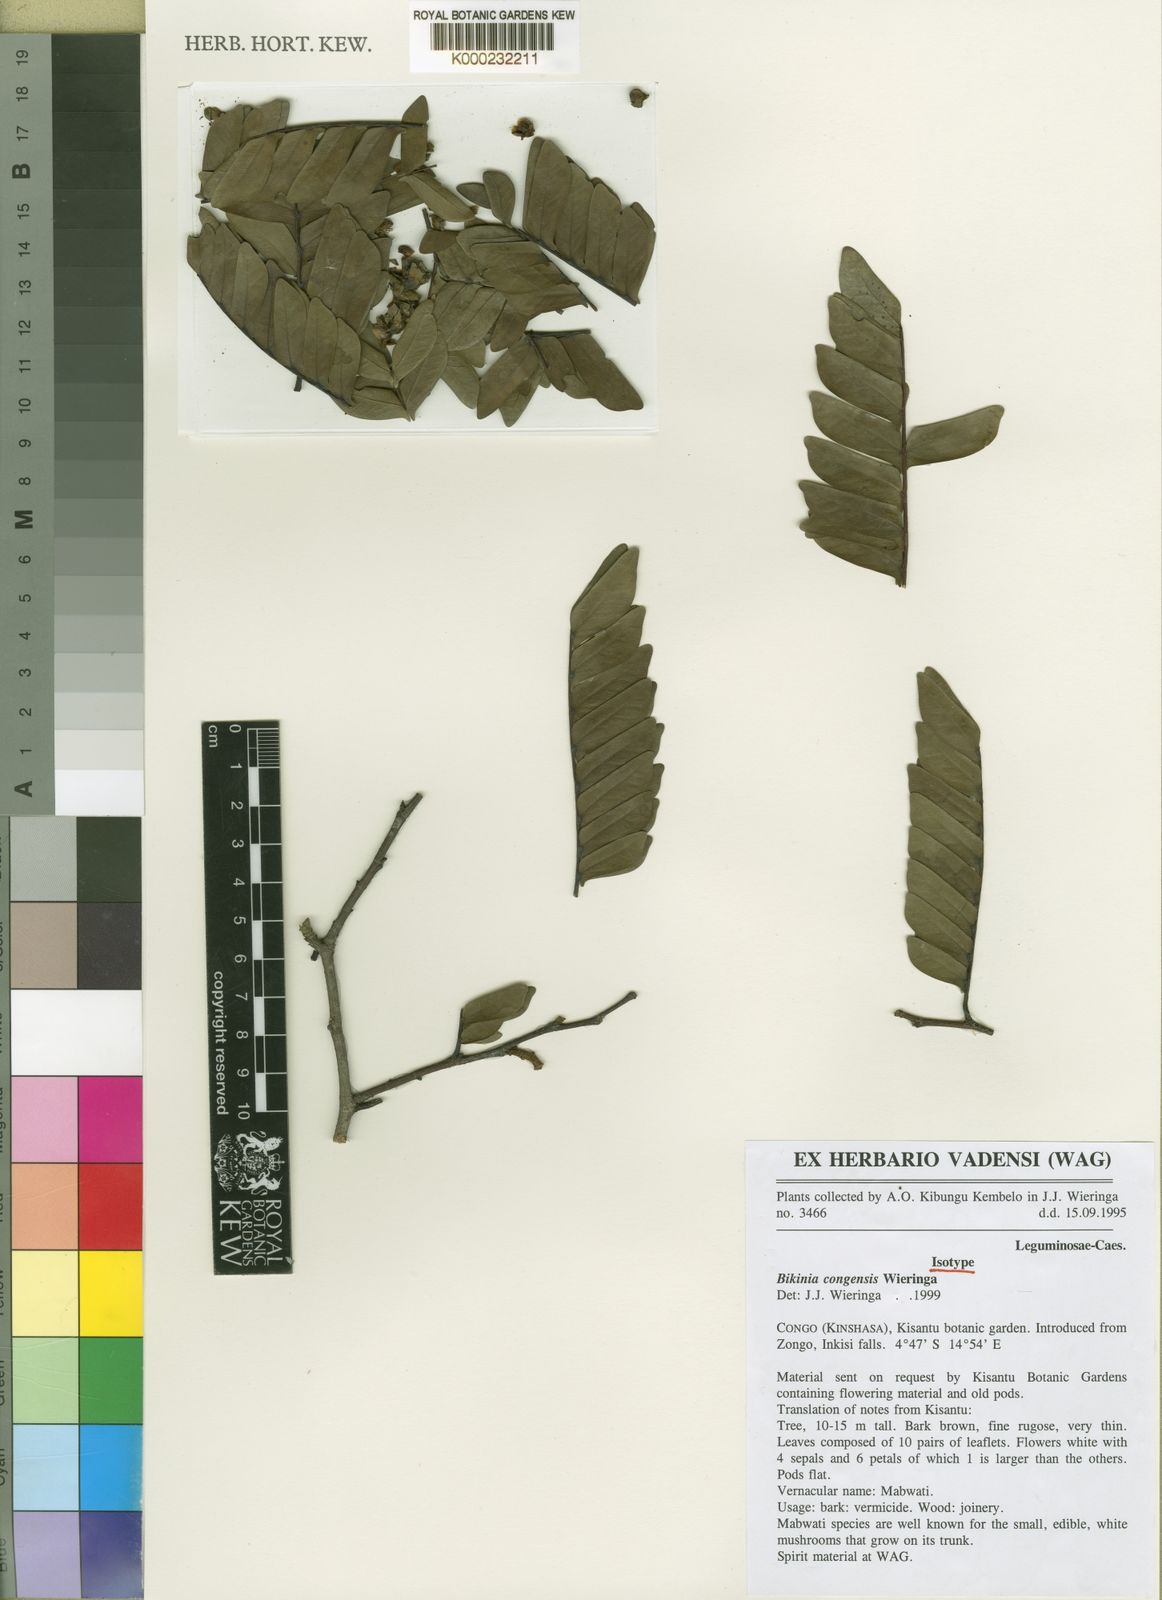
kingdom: Plantae
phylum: Tracheophyta
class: Magnoliopsida
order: Fabales
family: Fabaceae
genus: Bikinia
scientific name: Bikinia congensis
